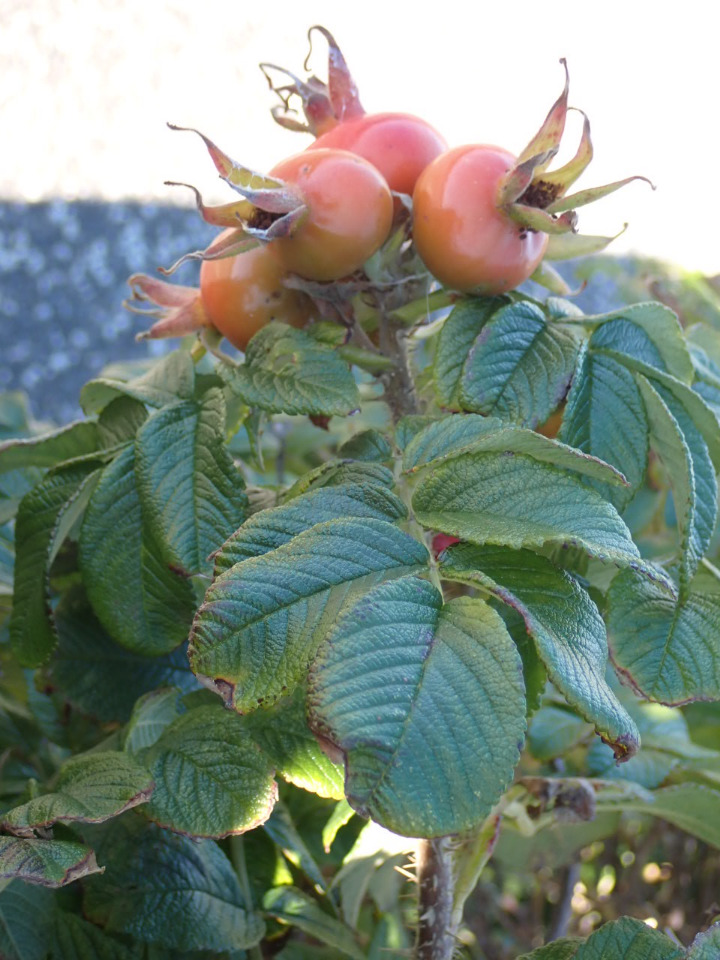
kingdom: Plantae
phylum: Tracheophyta
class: Magnoliopsida
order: Rosales
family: Rosaceae
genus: Rosa
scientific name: Rosa rugosa
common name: Rynket rose
